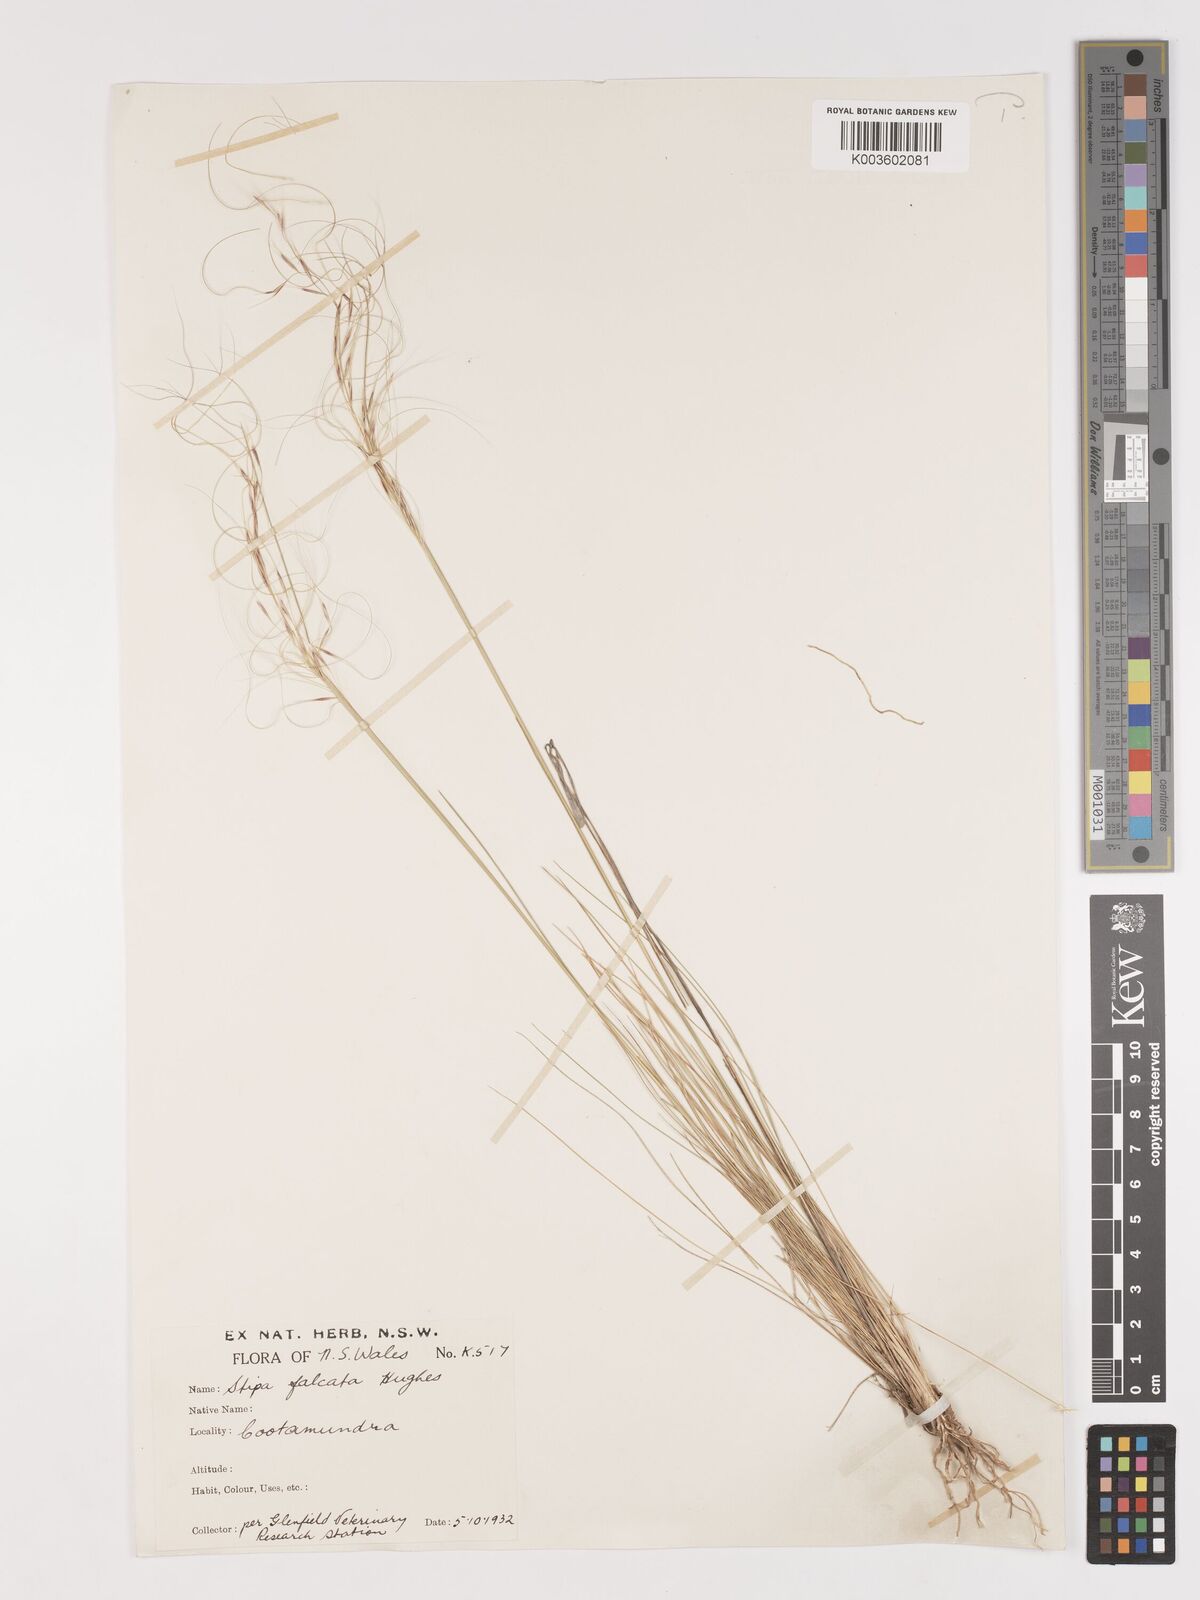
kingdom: Plantae
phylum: Tracheophyta
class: Liliopsida
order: Poales
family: Poaceae
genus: Austrostipa
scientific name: Austrostipa scabra
